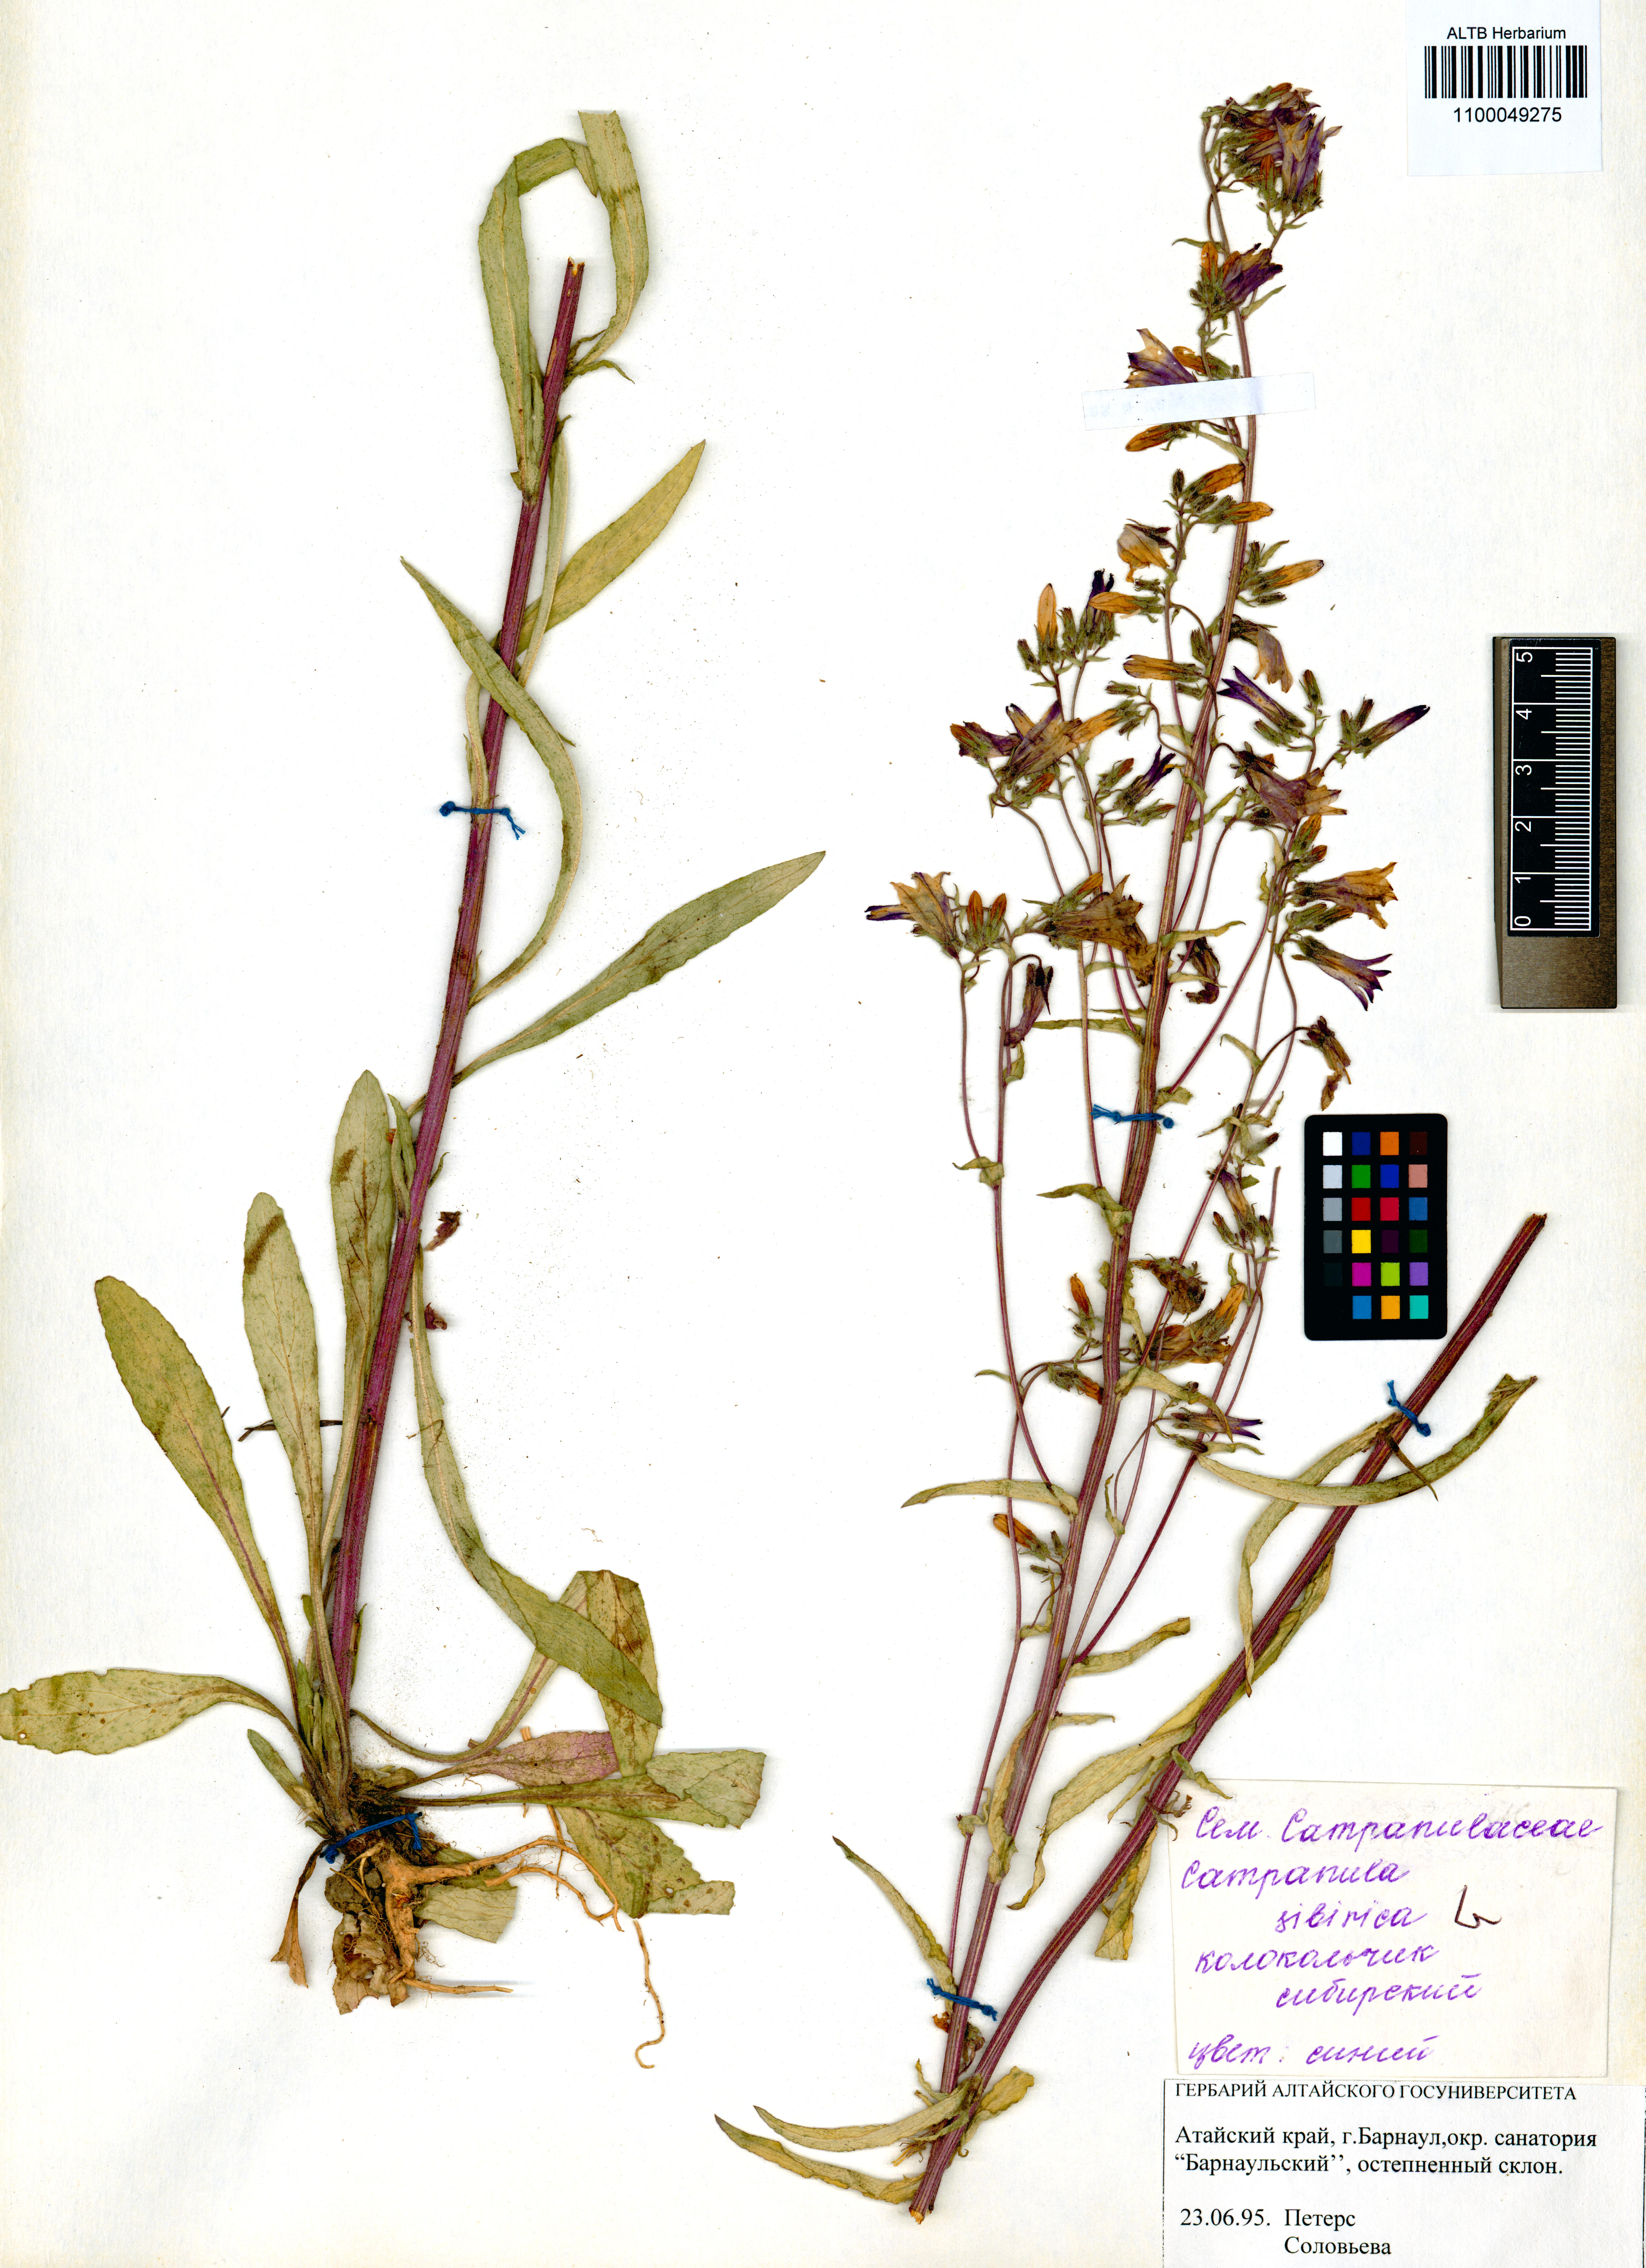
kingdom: Plantae
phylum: Tracheophyta
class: Magnoliopsida
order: Asterales
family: Campanulaceae
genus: Campanula
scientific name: Campanula sibirica
